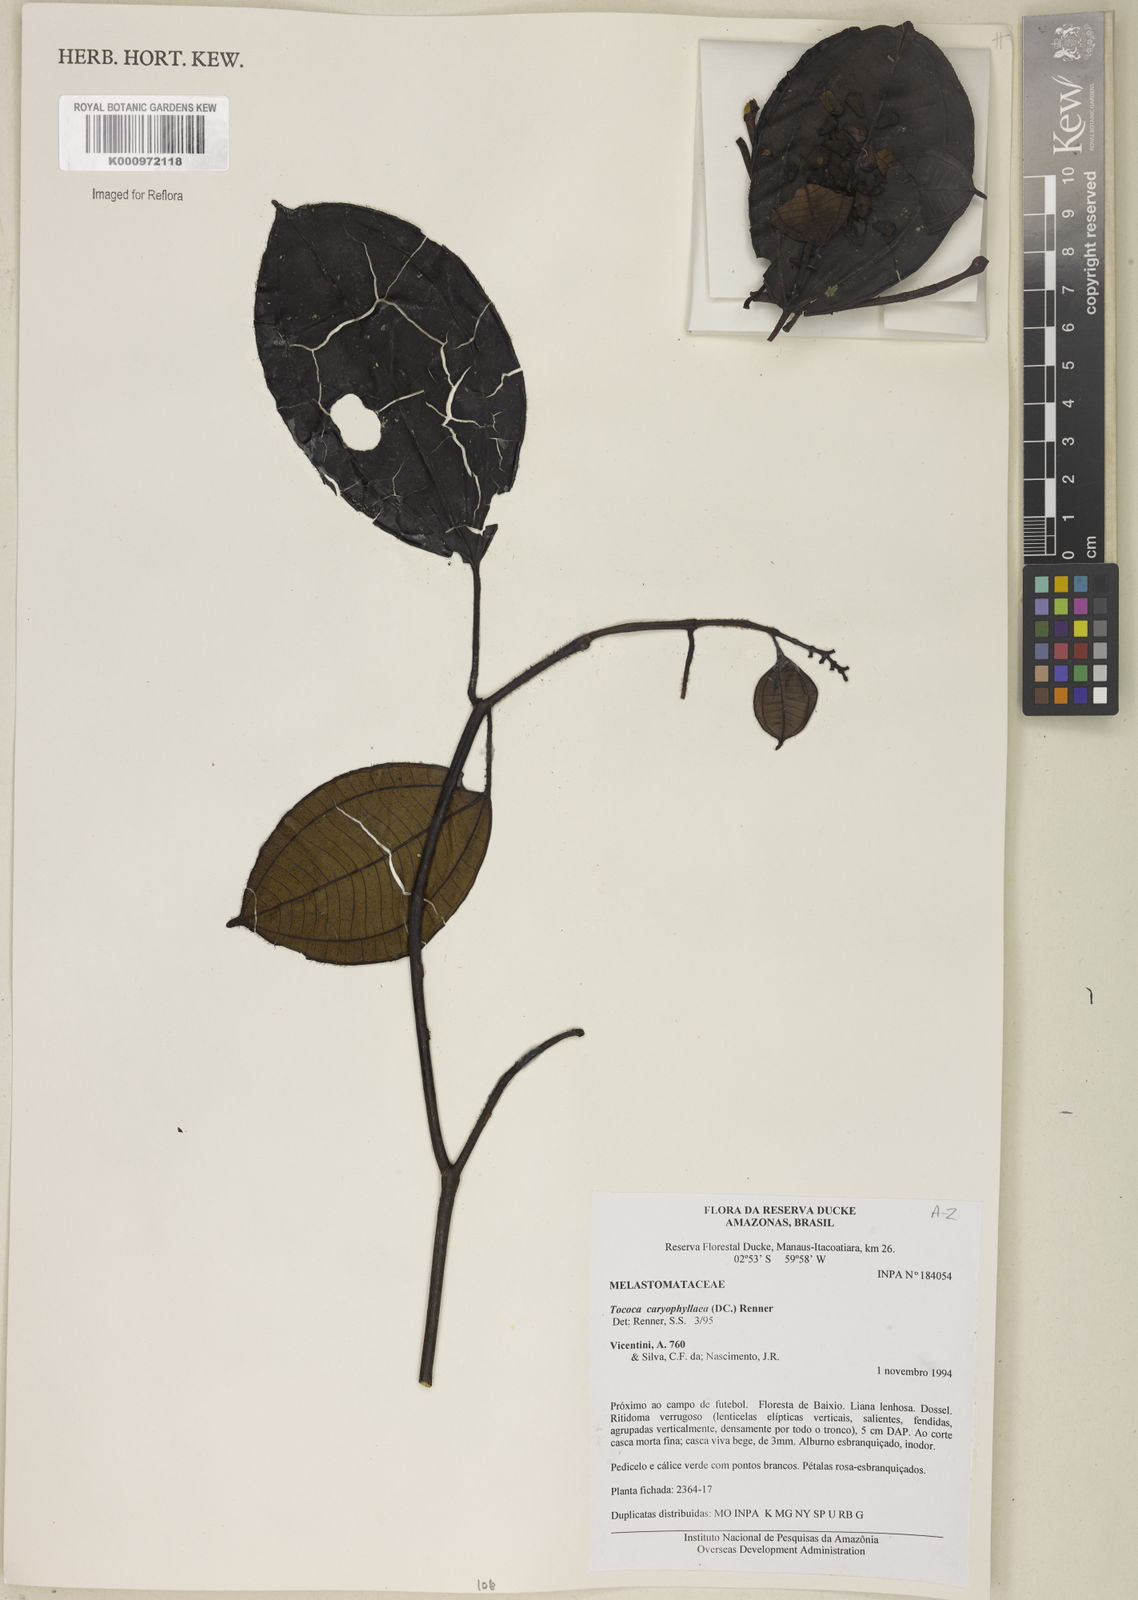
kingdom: Plantae
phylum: Tracheophyta
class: Magnoliopsida
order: Myrtales
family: Melastomataceae
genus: Miconia
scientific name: Miconia caryophyllacea
